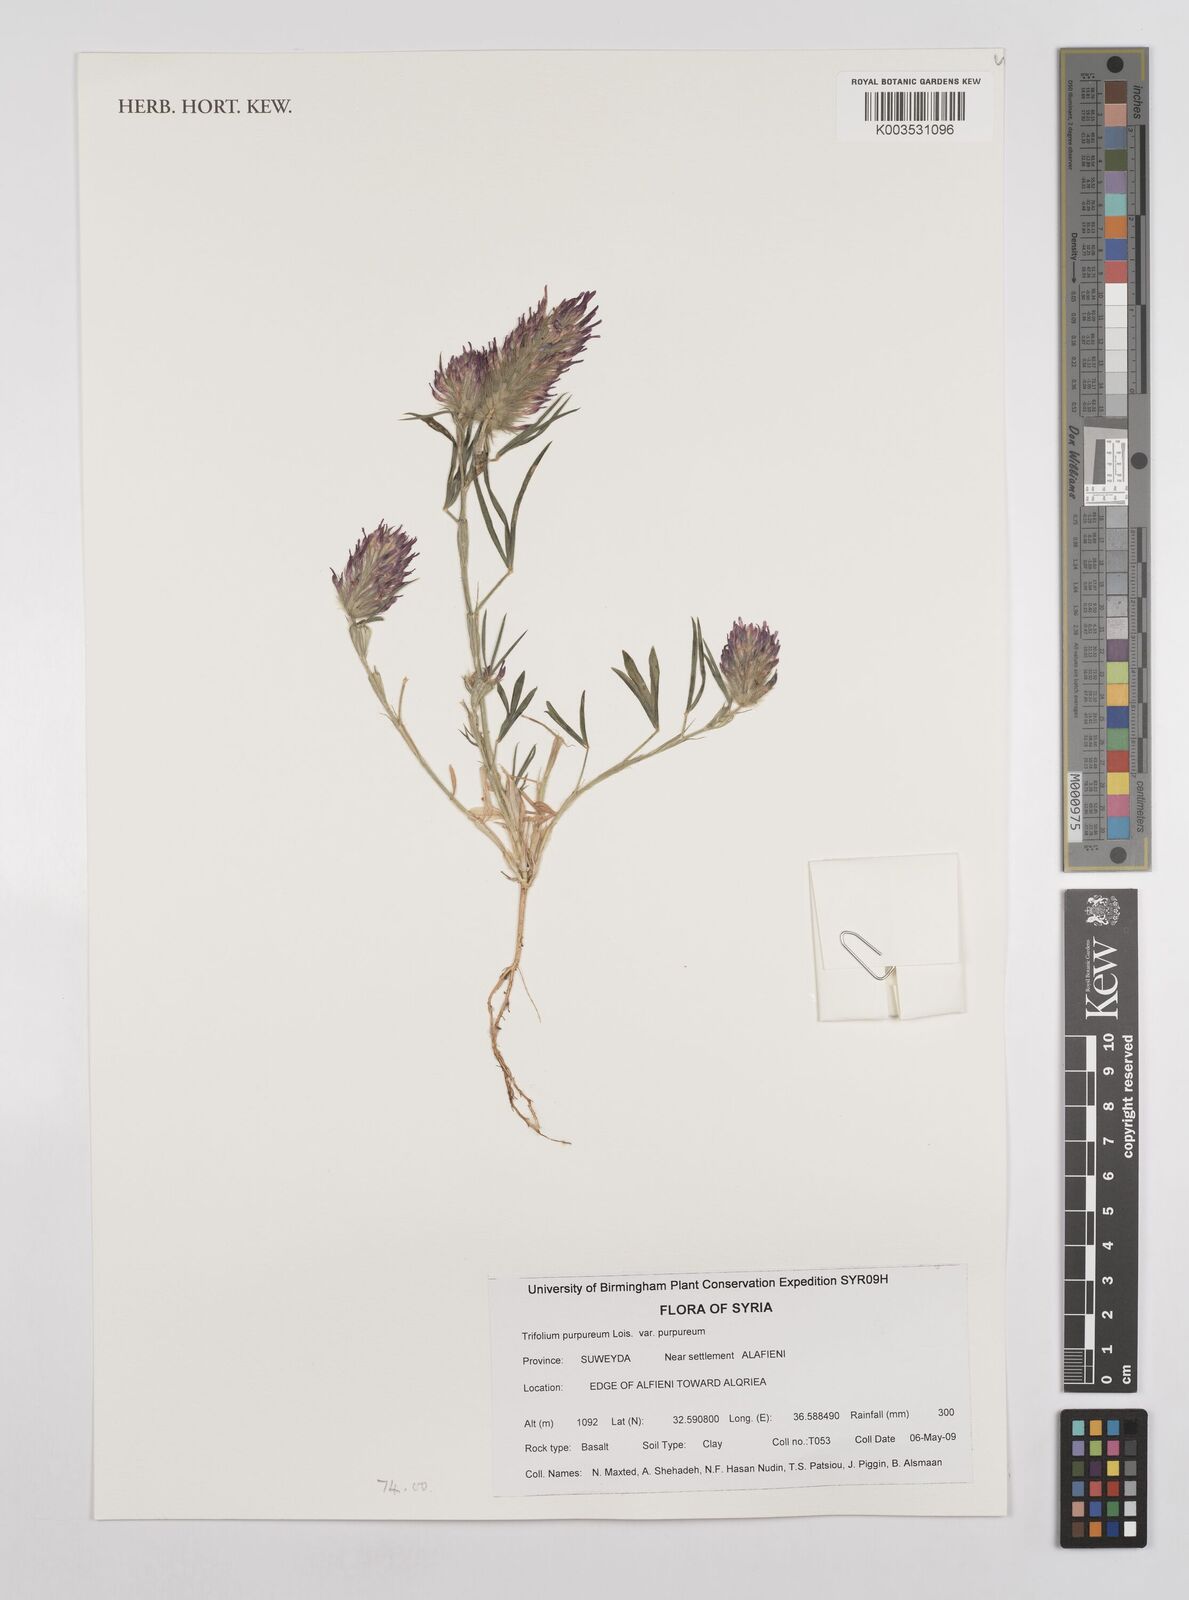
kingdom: Plantae
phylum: Tracheophyta
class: Magnoliopsida
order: Fabales
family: Fabaceae
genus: Trifolium
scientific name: Trifolium purpureum
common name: Purple clover
